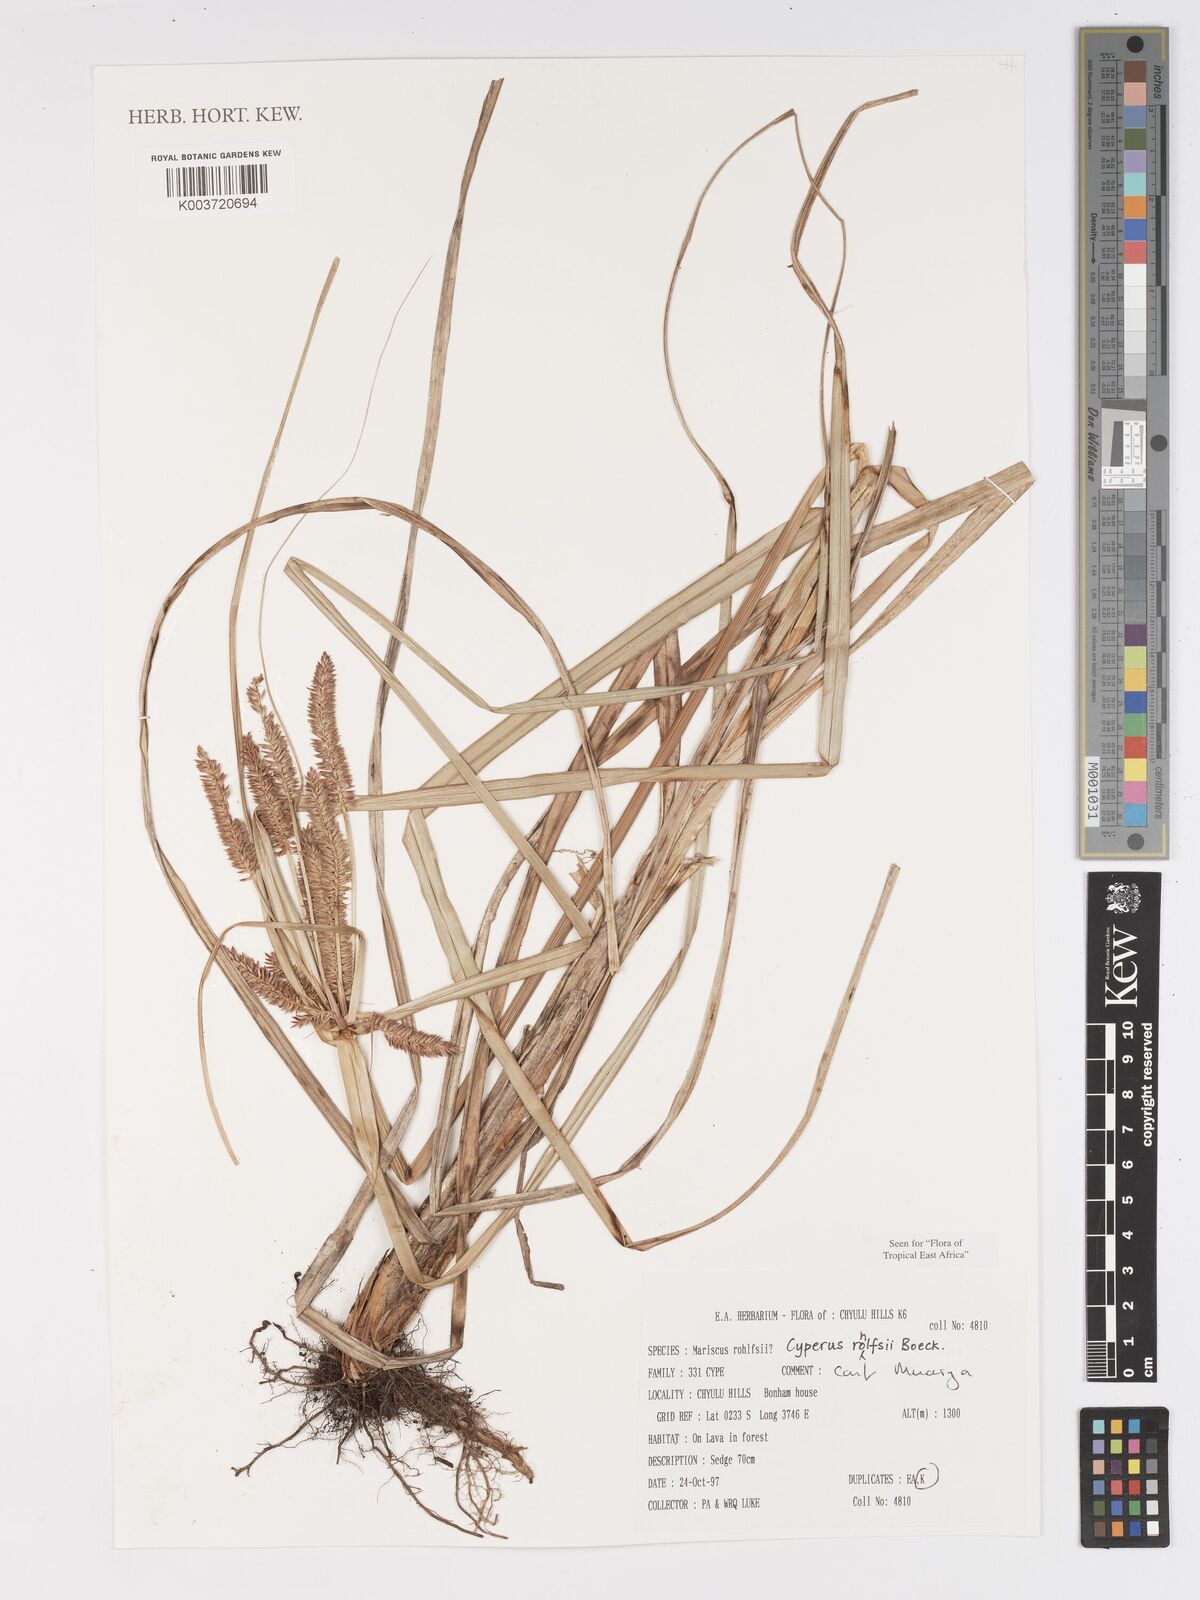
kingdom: Plantae
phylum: Tracheophyta
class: Liliopsida
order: Poales
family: Cyperaceae
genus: Cyperus
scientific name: Cyperus rohlfsii
